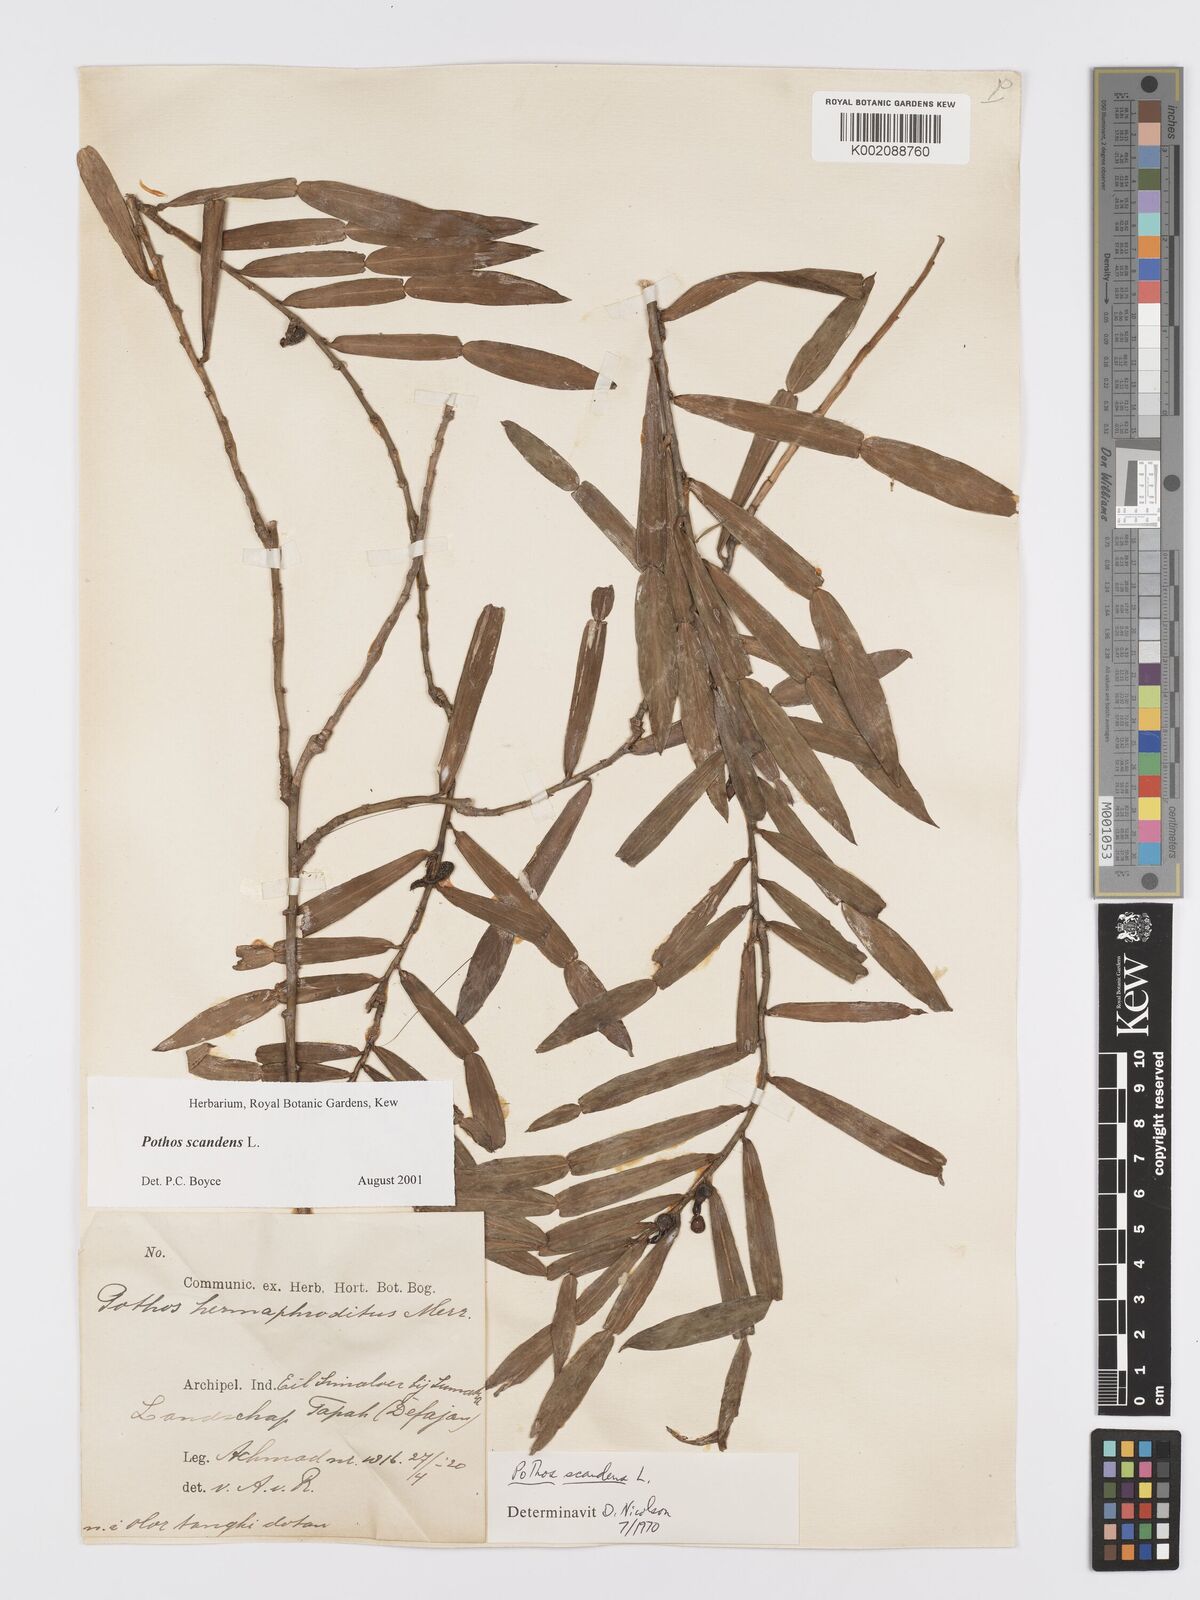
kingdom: Plantae
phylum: Tracheophyta
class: Liliopsida
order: Alismatales
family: Araceae
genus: Pothos
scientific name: Pothos scandens
